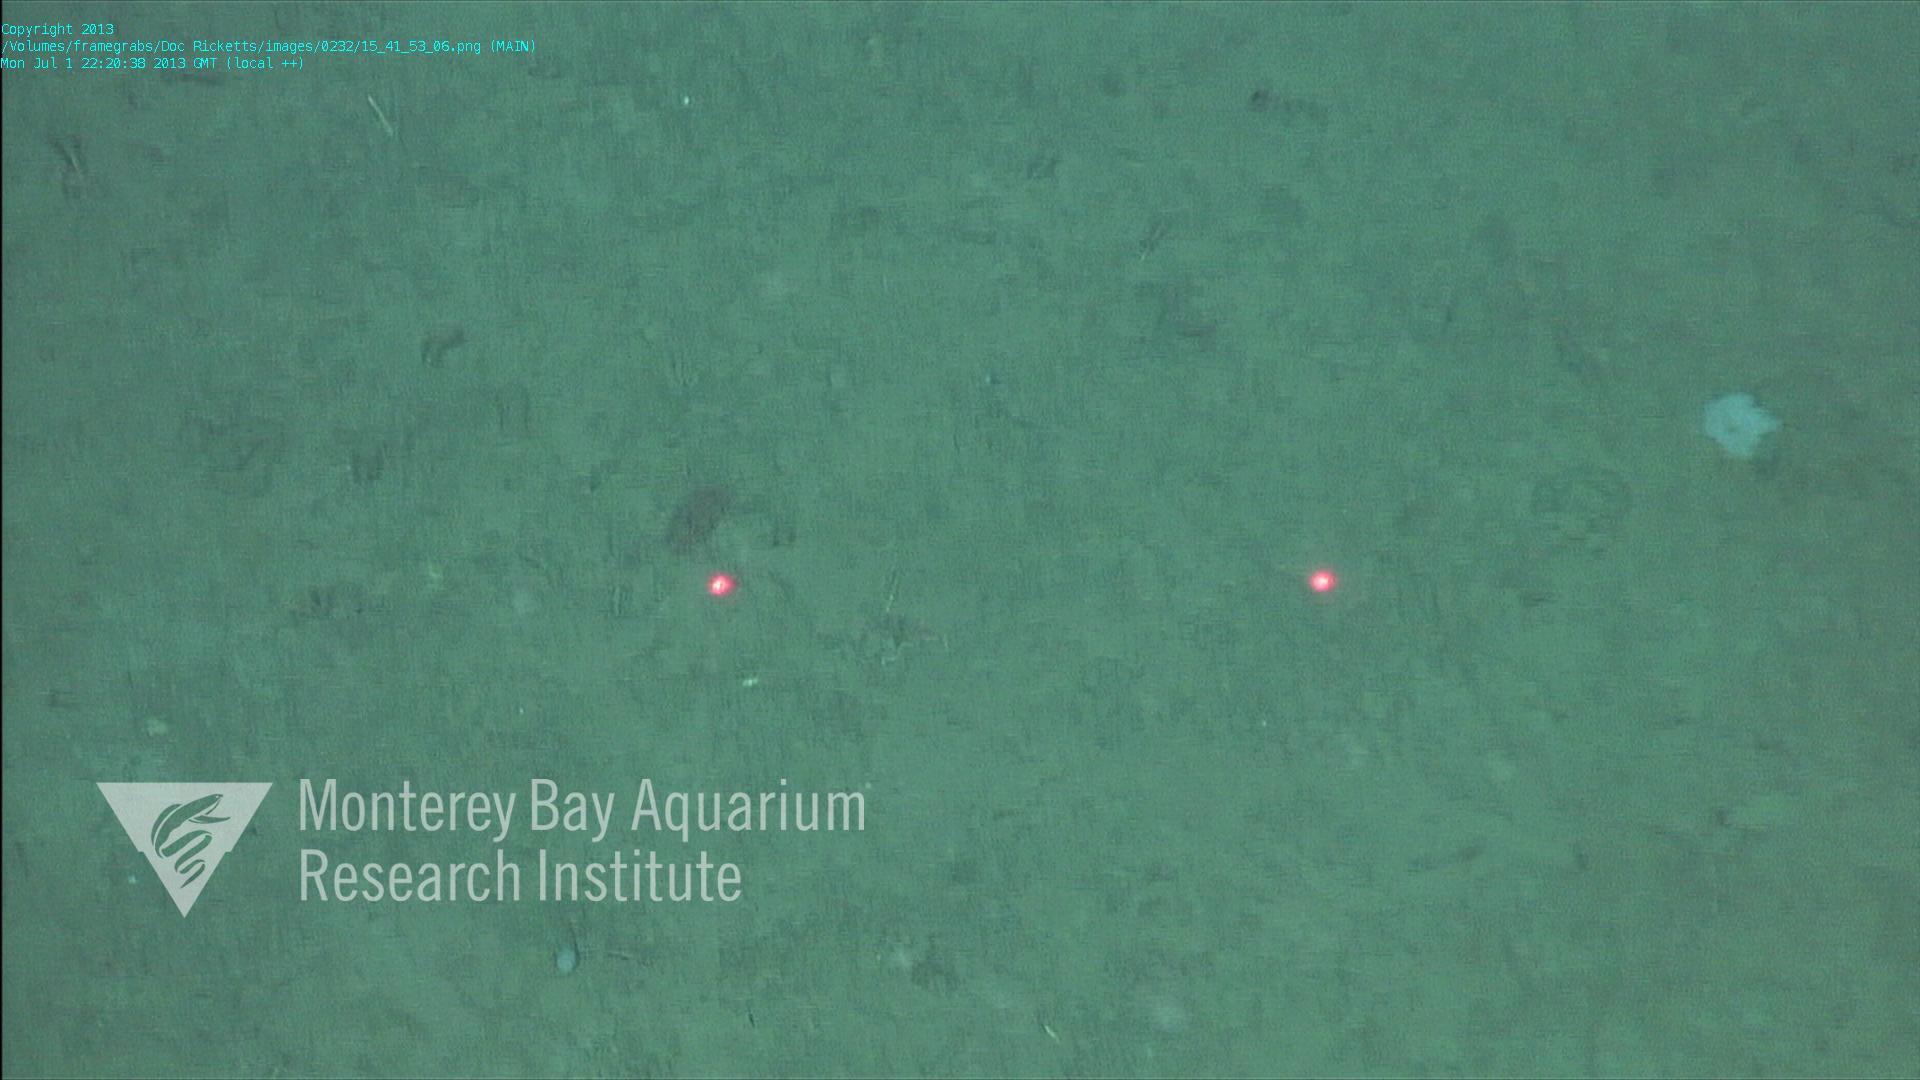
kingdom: Animalia
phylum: Porifera
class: Hexactinellida
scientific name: Hexactinellida
